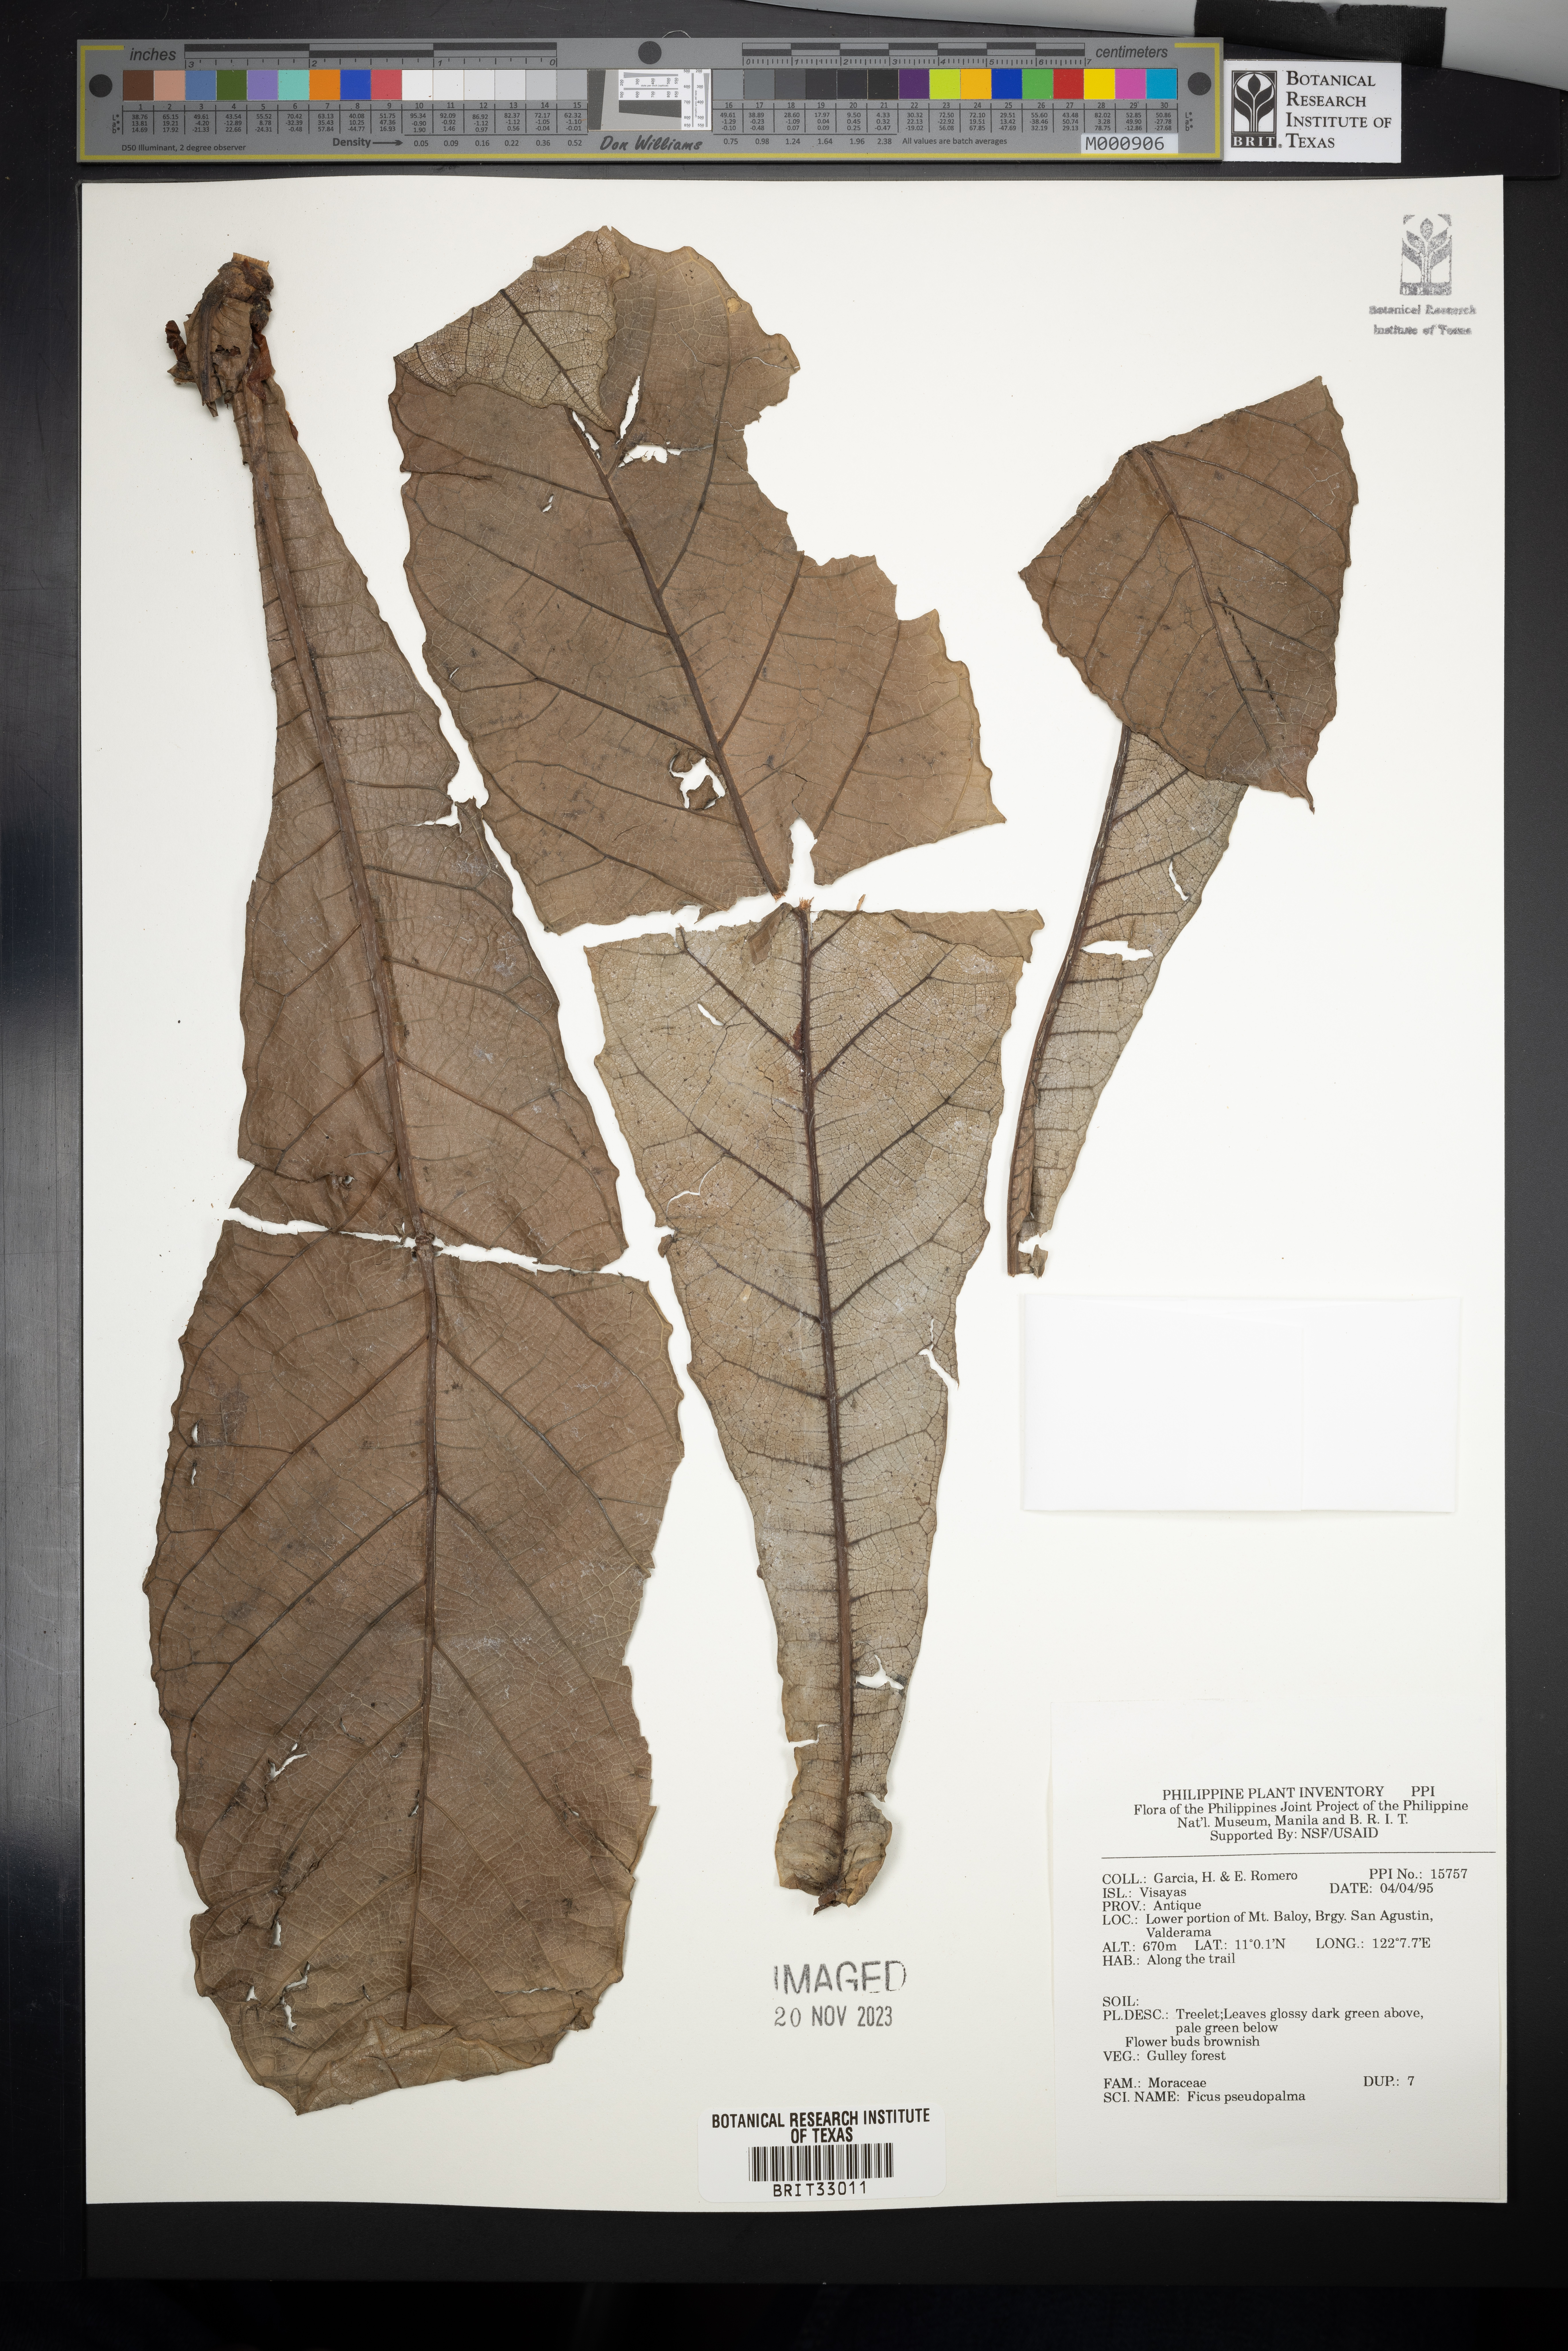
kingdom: Plantae
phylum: Tracheophyta
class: Magnoliopsida
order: Rosales
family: Moraceae
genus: Ficus
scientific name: Ficus pseudopalma
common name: Palm-like fig
